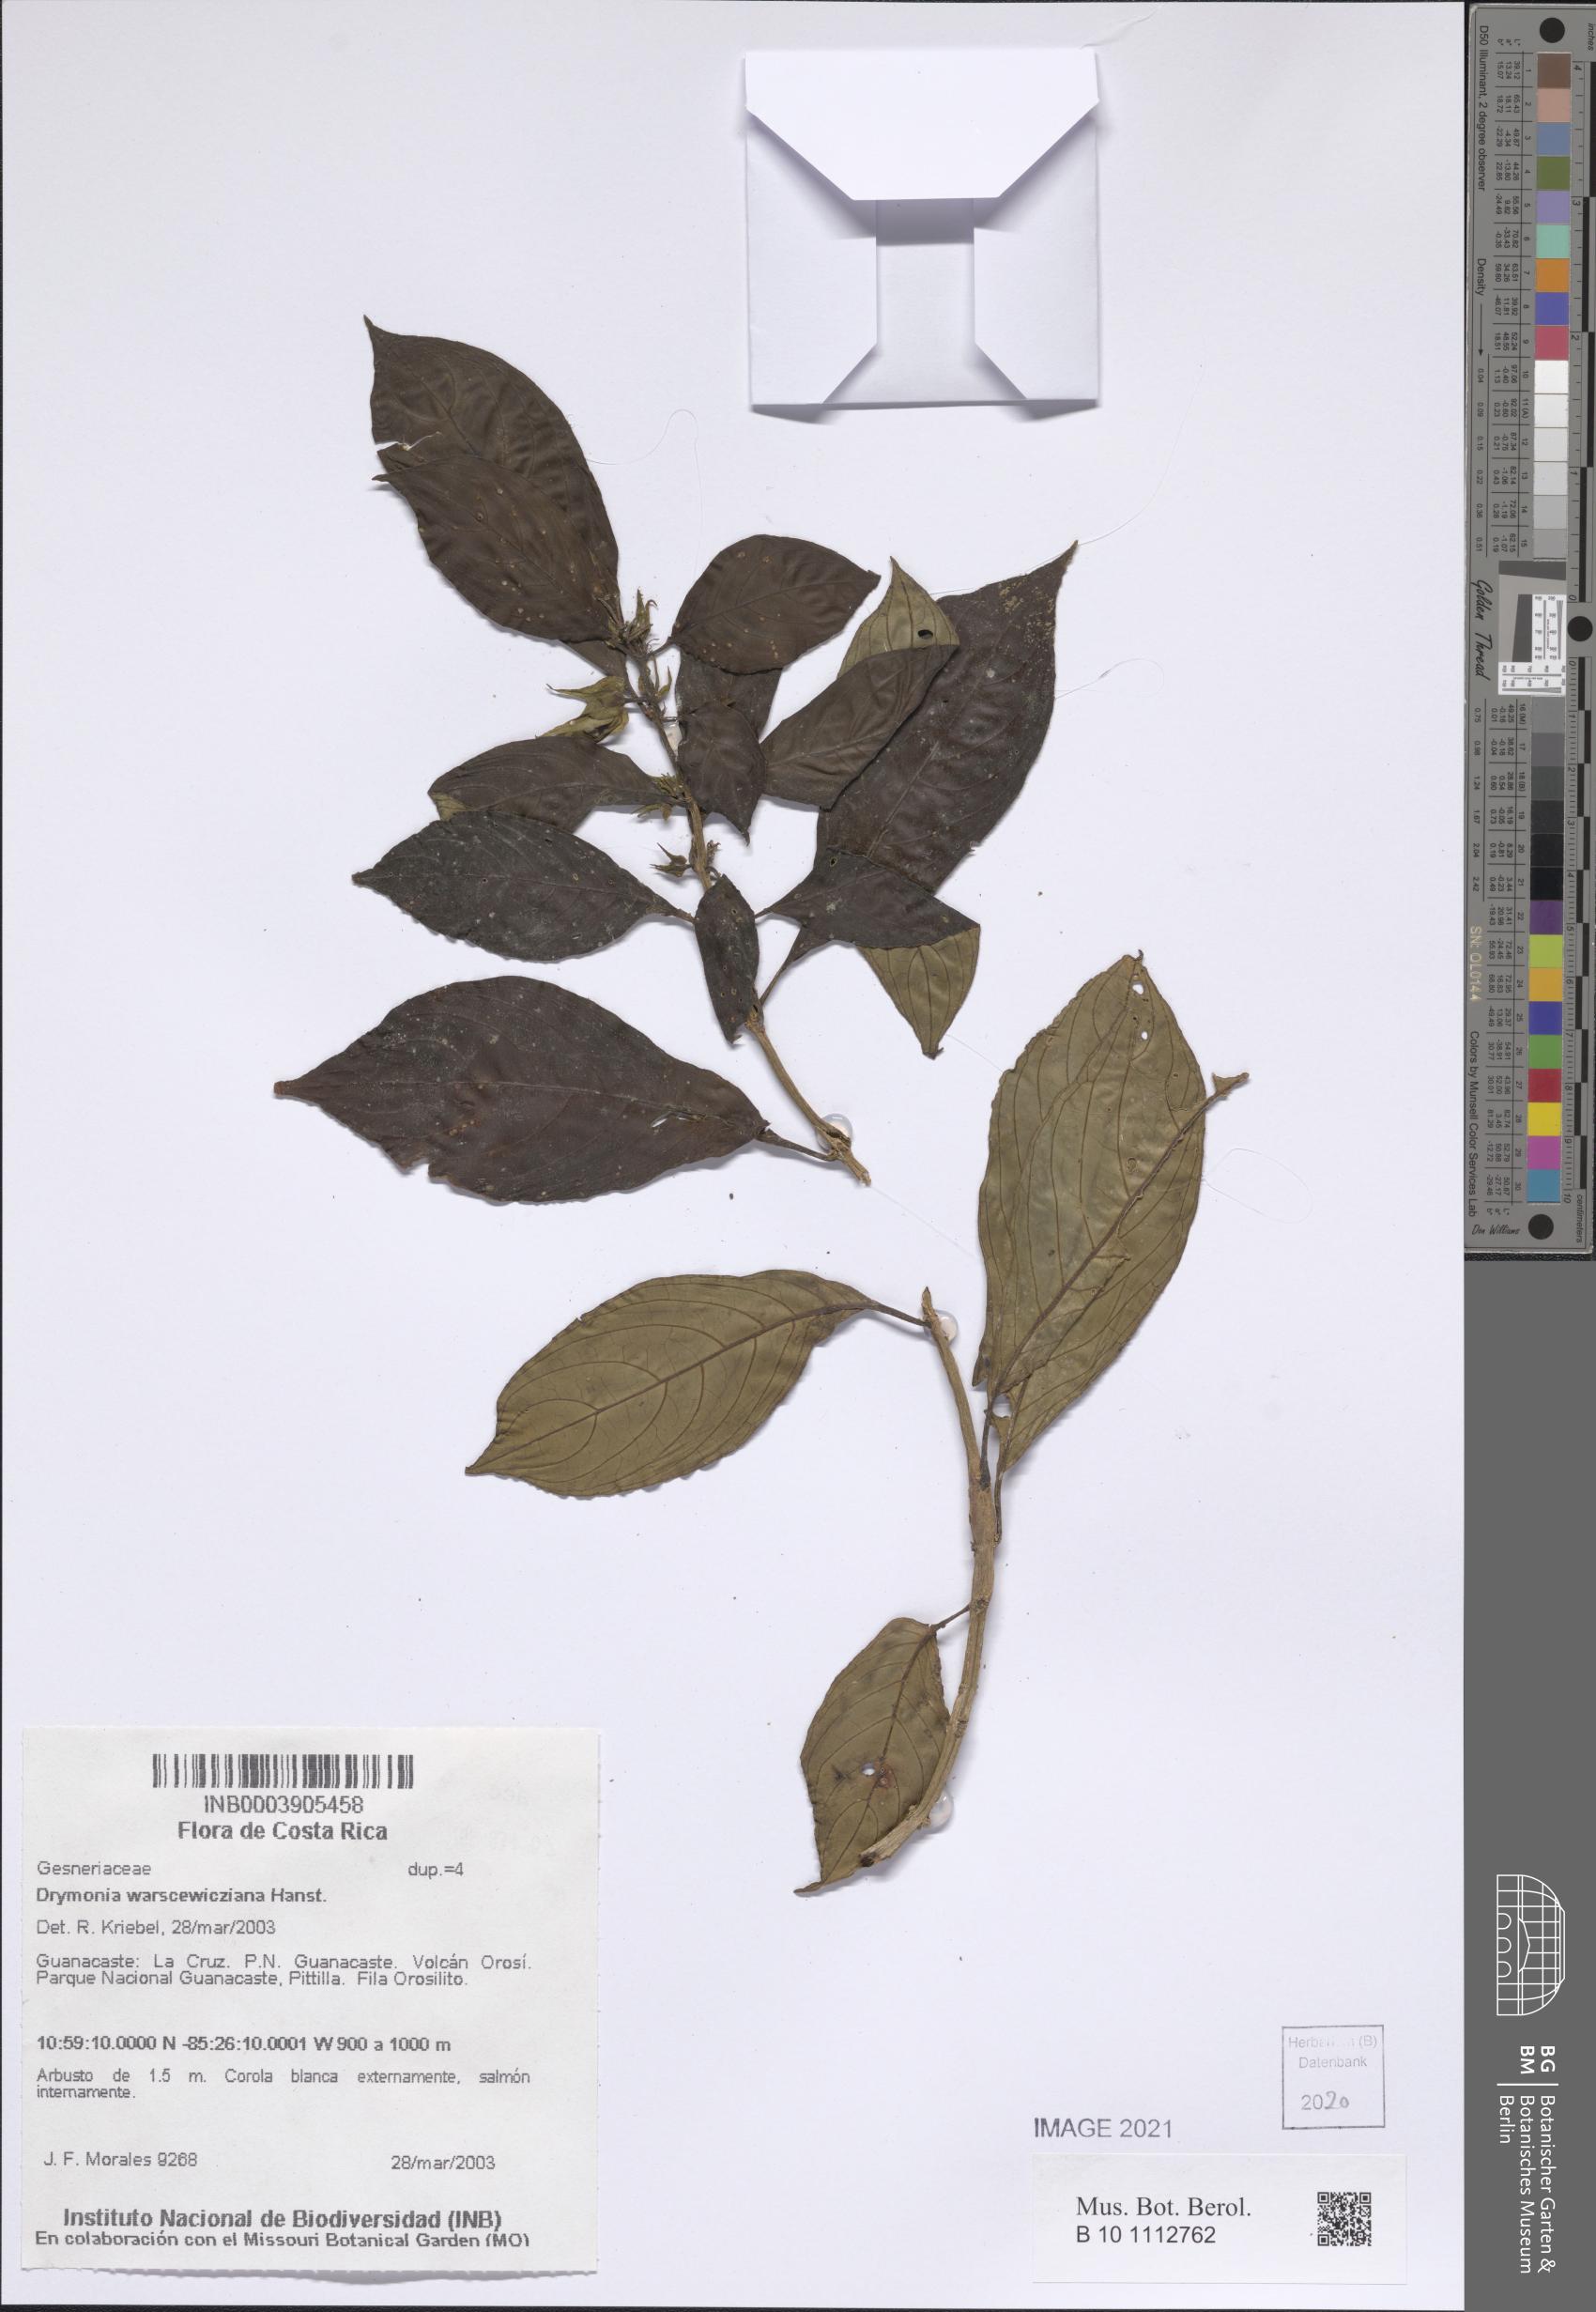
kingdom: Plantae
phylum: Tracheophyta
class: Magnoliopsida
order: Lamiales
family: Gesneriaceae
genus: Drymonia
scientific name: Drymonia warscewicziana
